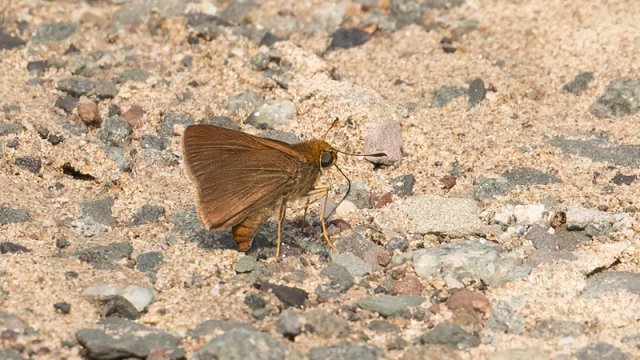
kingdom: Animalia
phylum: Arthropoda
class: Insecta
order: Lepidoptera
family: Hesperiidae
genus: Euphyes
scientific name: Euphyes vestris
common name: Dun Skipper
